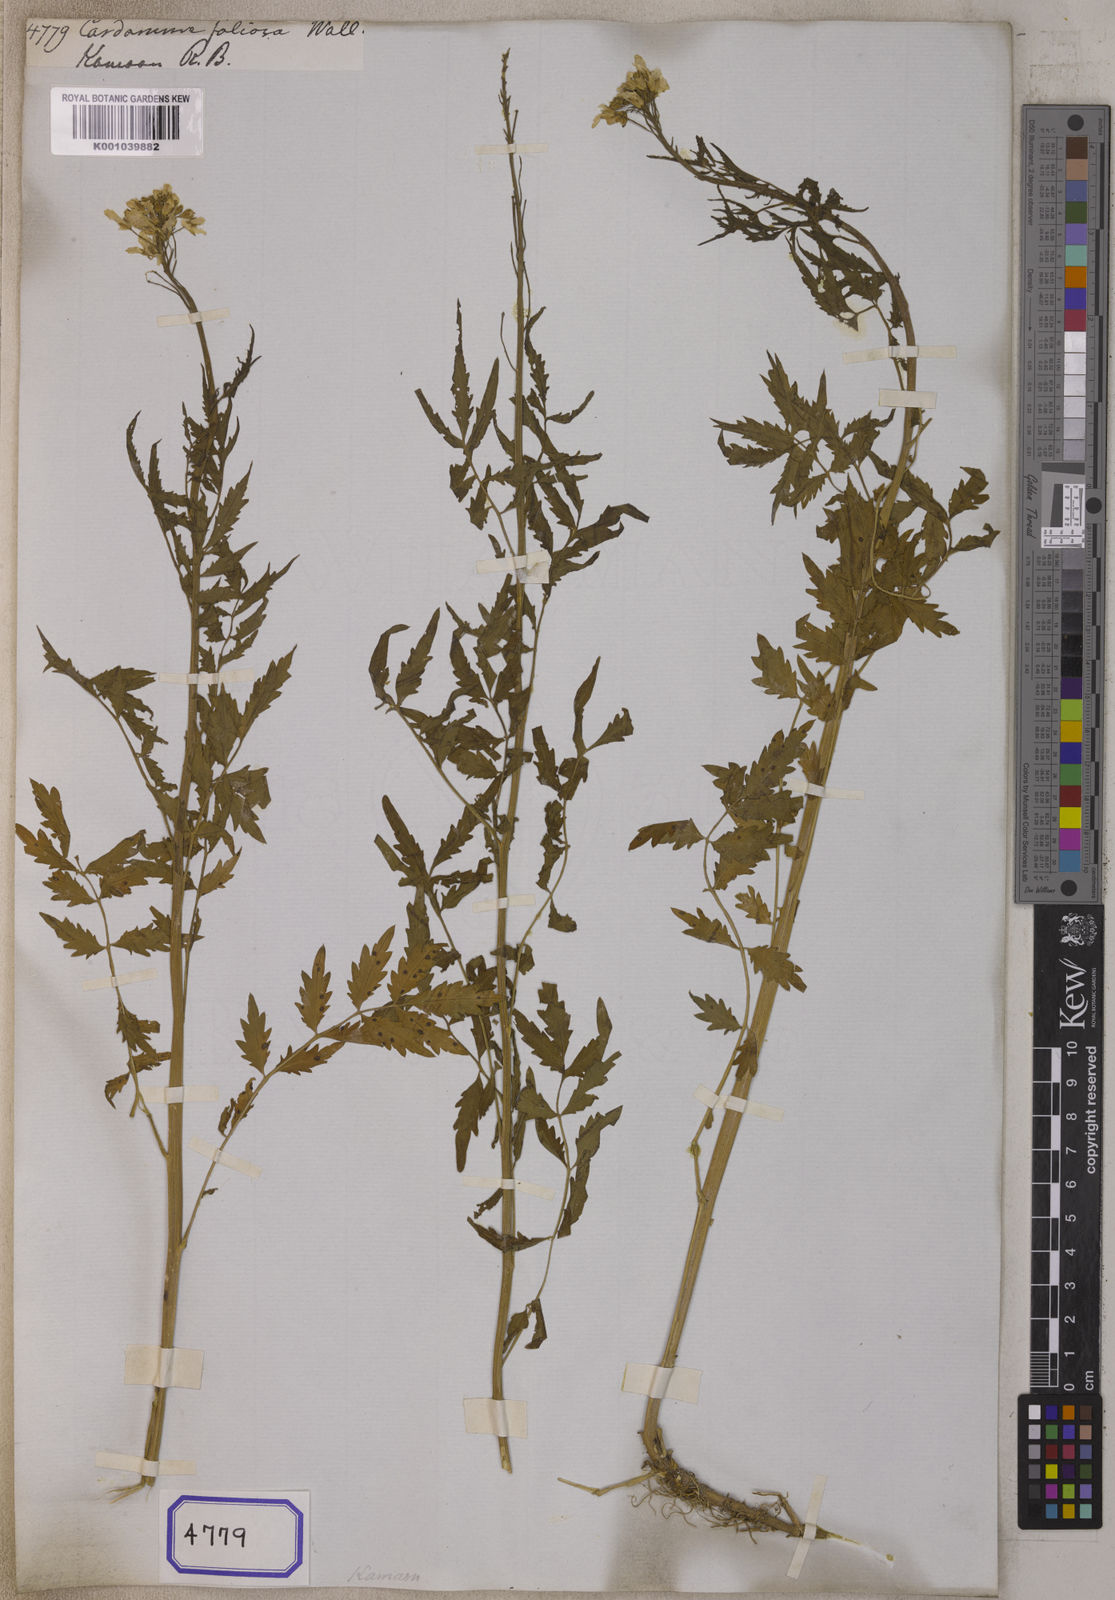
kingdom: Plantae
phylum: Tracheophyta
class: Magnoliopsida
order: Brassicales
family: Brassicaceae
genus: Cardamine
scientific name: Cardamine macrophylla
